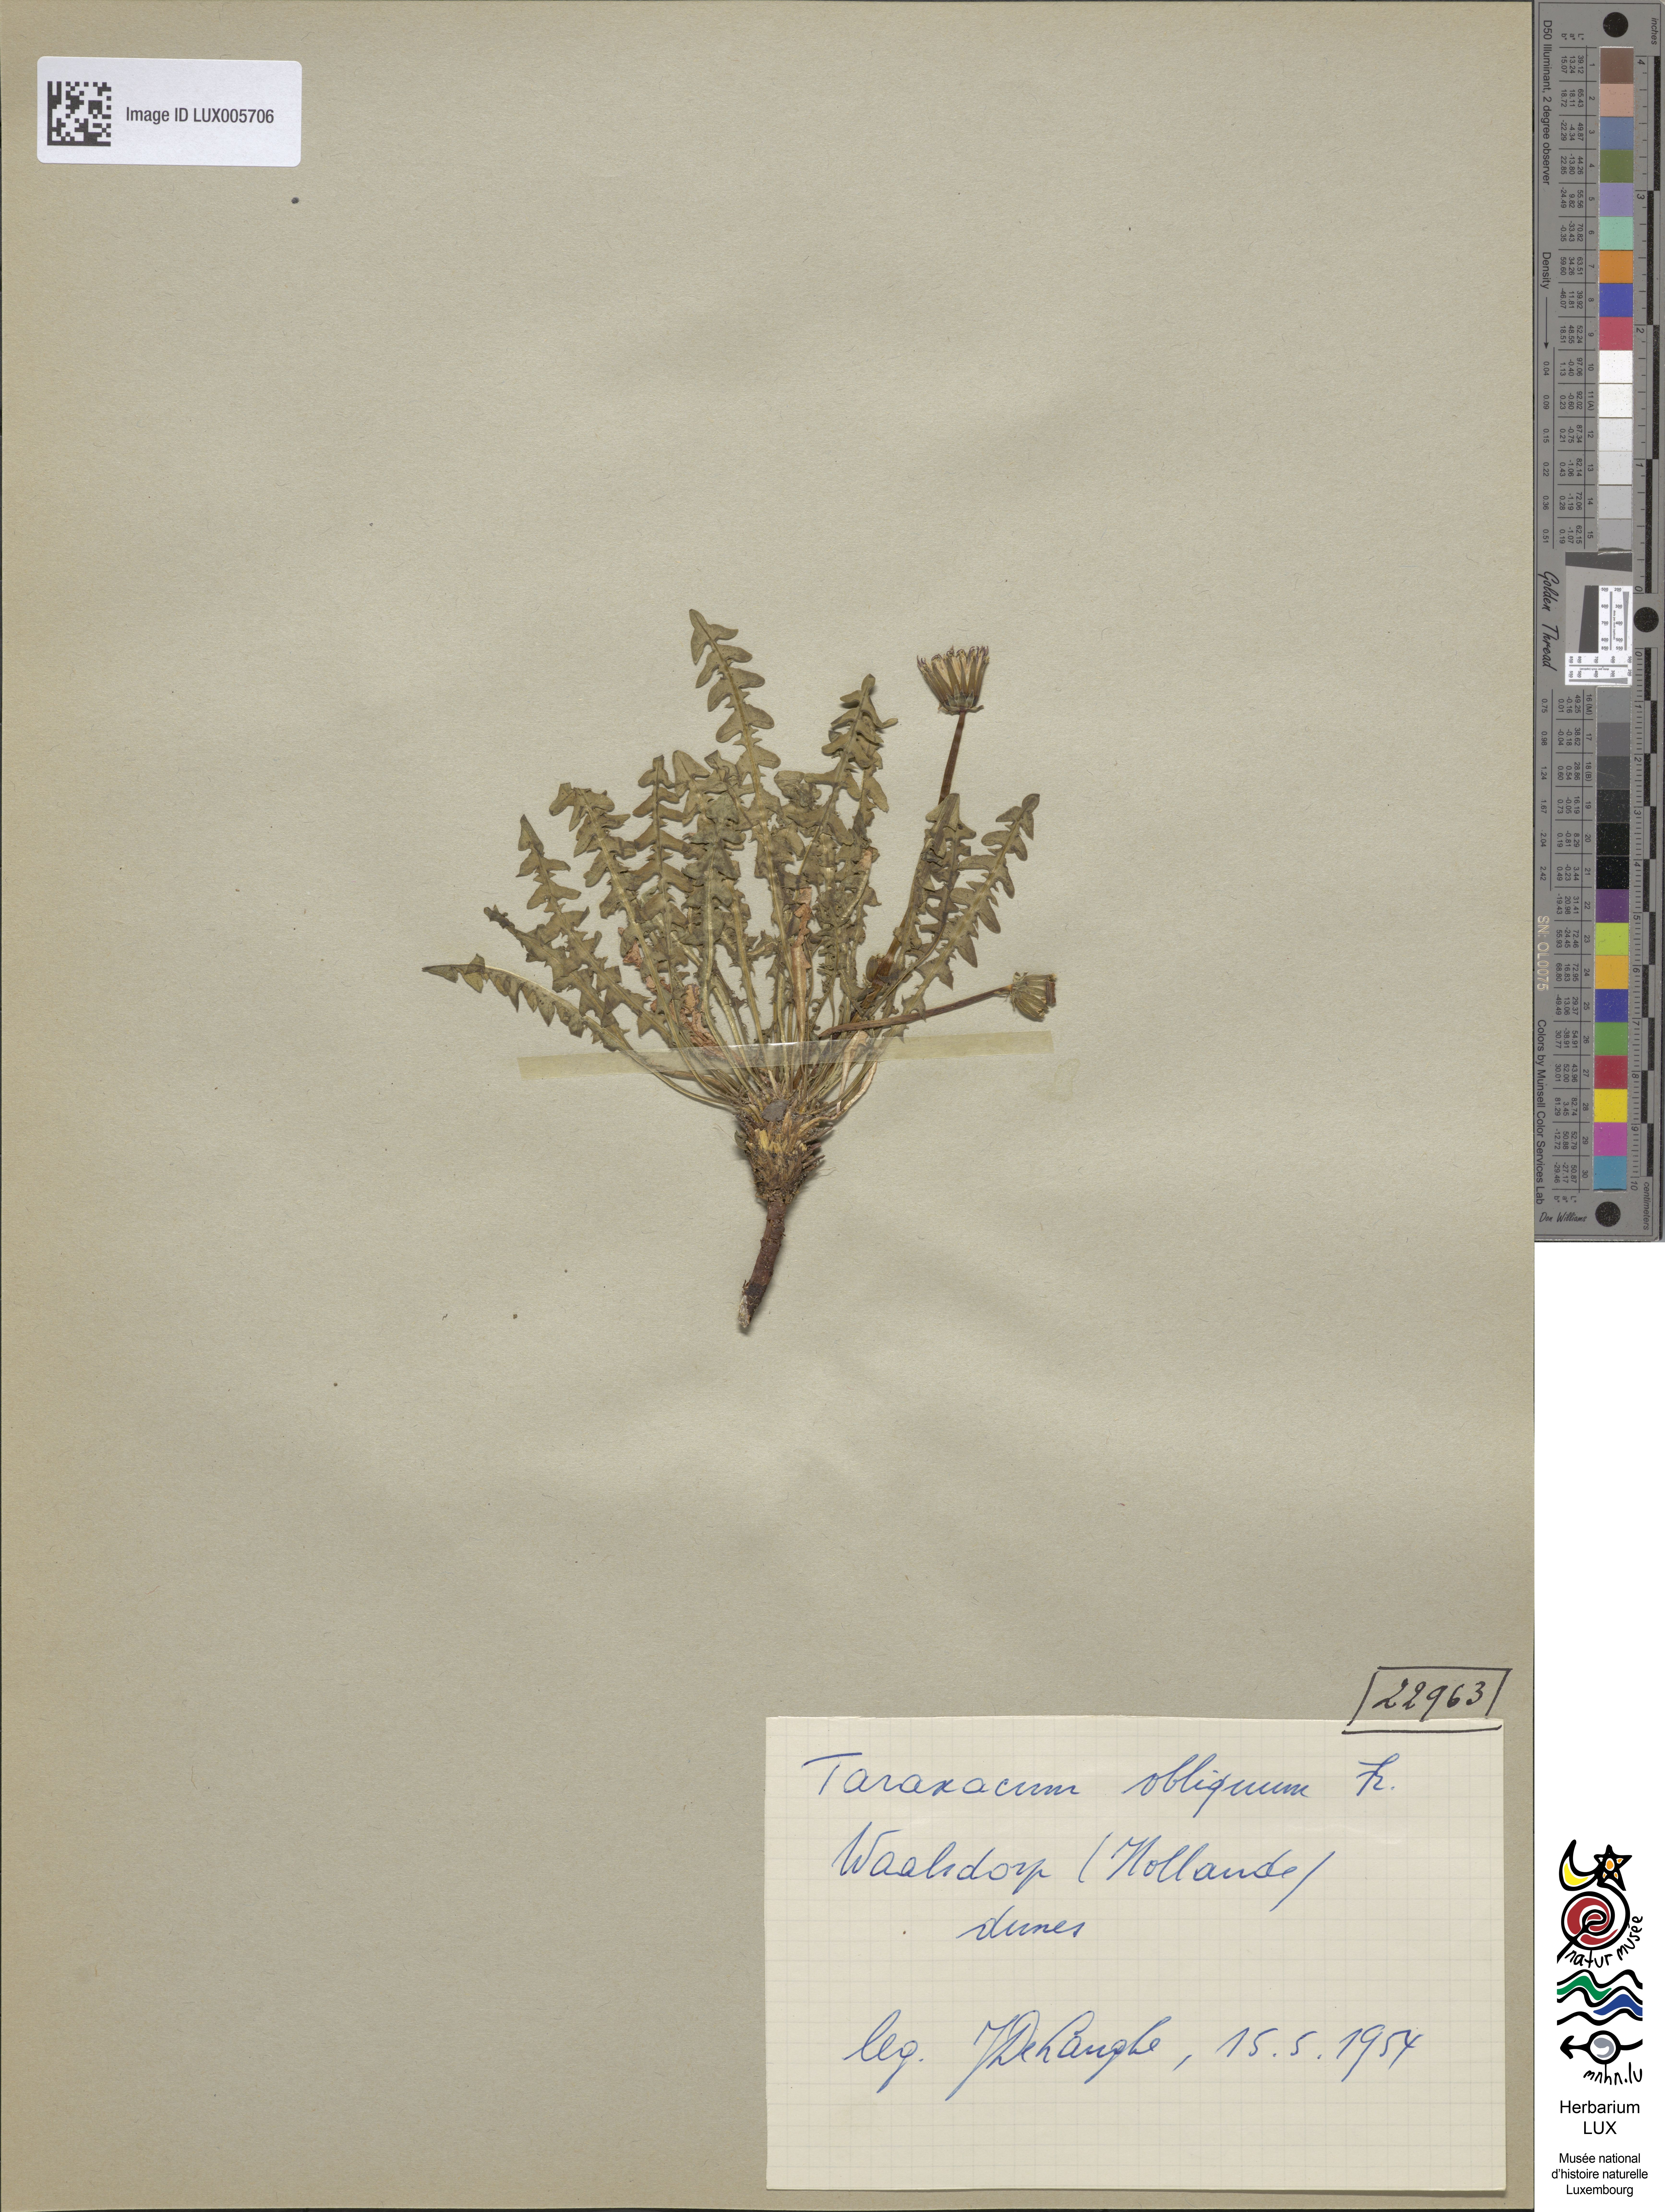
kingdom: Plantae
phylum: Tracheophyta
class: Magnoliopsida
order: Asterales
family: Asteraceae
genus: Taraxacum
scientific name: Taraxacum obliquum
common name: Many-lobed dandelion
